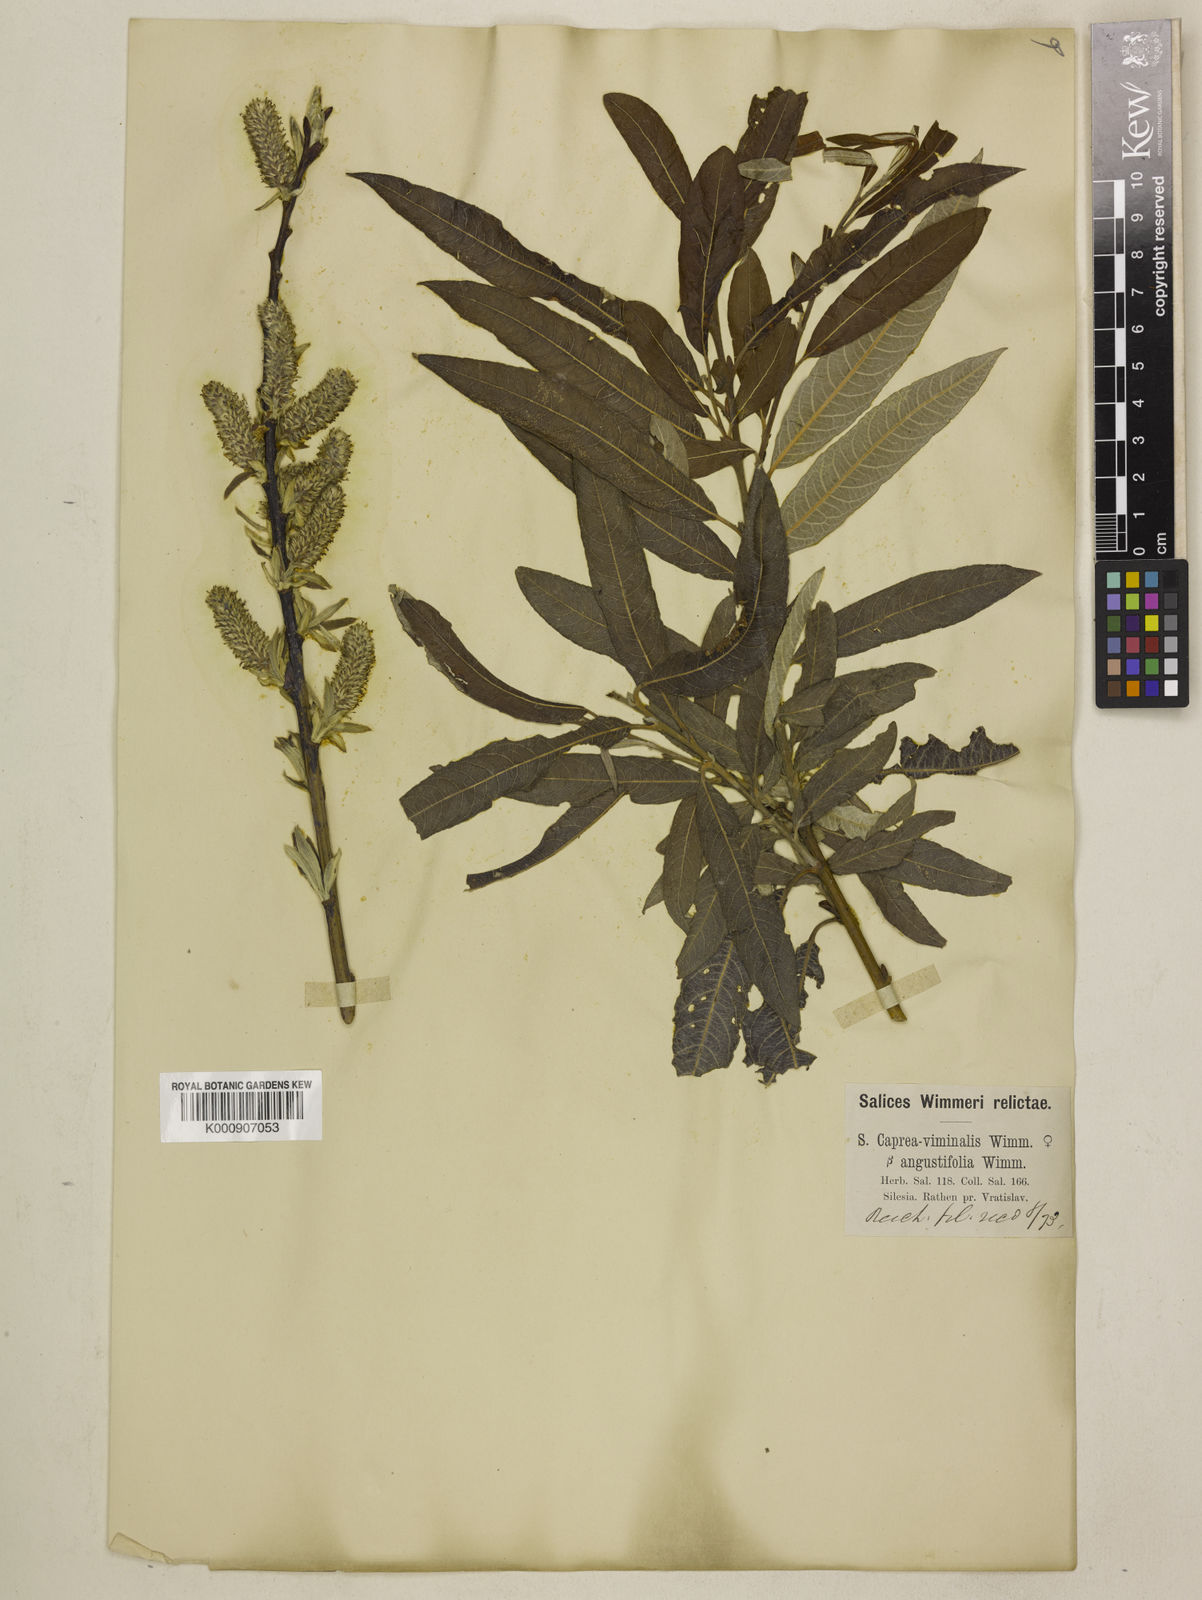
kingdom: Plantae
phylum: Tracheophyta
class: Magnoliopsida
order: Malpighiales
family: Salicaceae
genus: Salix
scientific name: Salix
